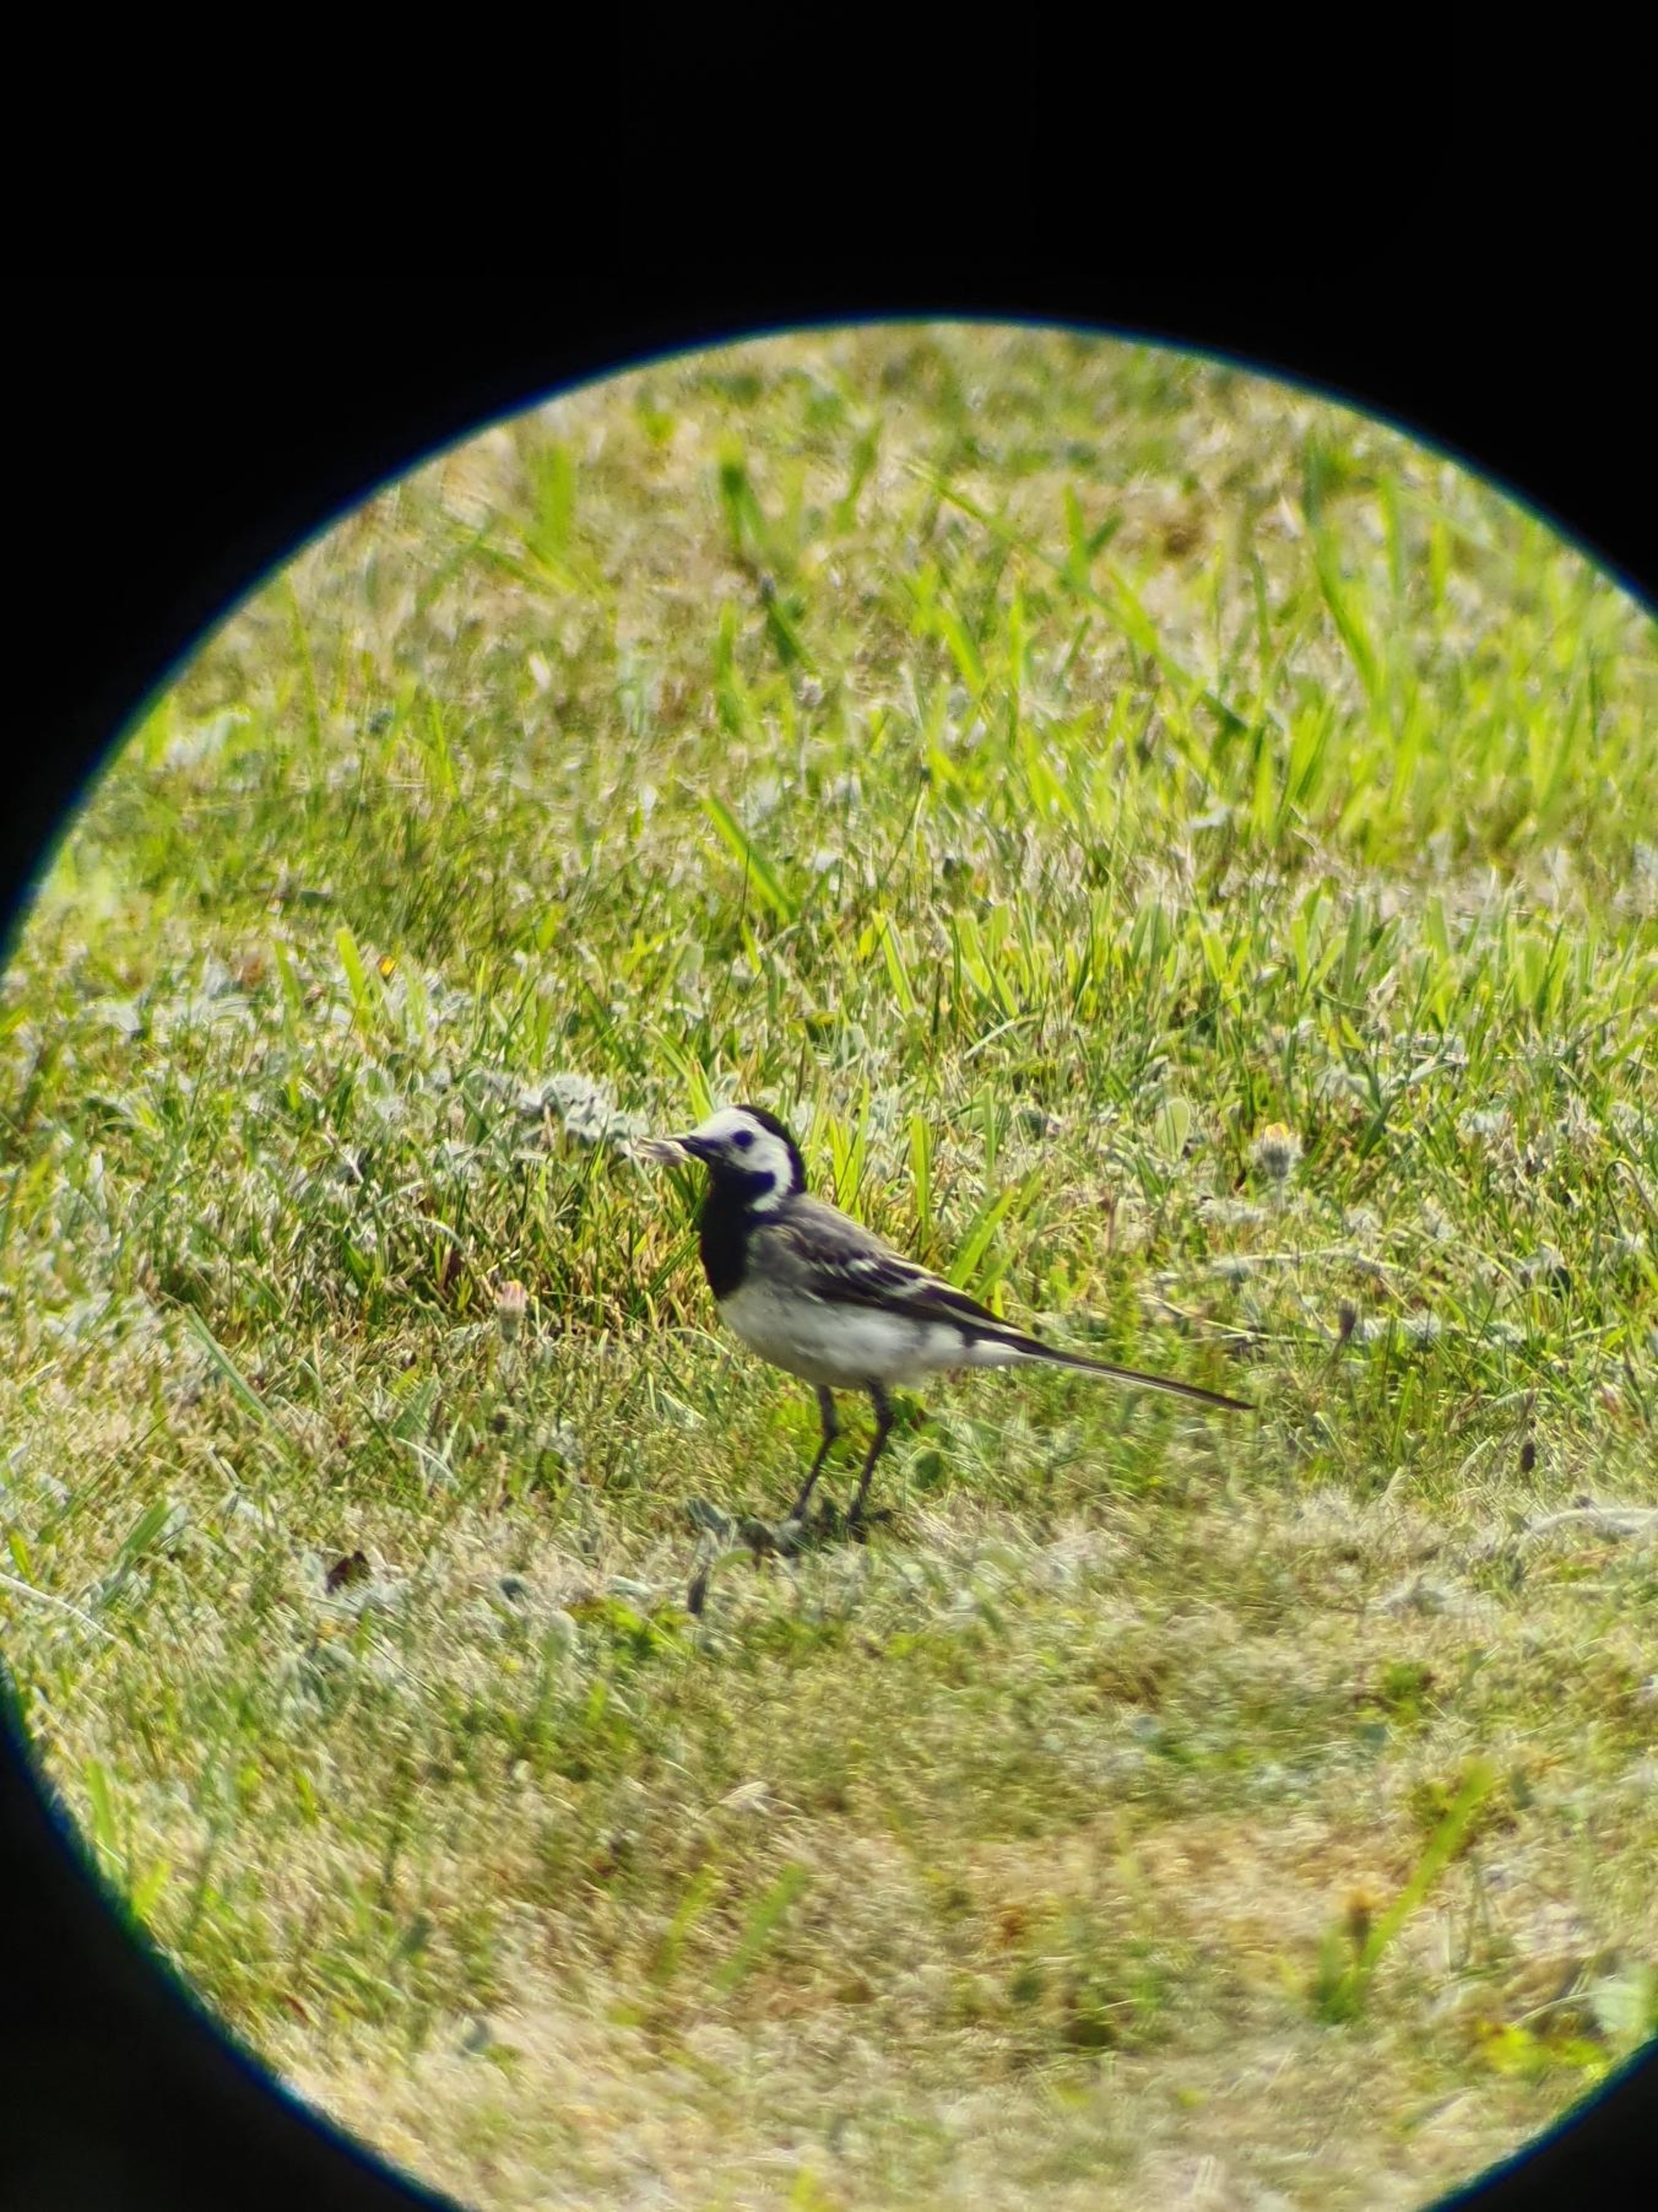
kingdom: Animalia
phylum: Chordata
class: Aves
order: Passeriformes
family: Motacillidae
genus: Motacilla
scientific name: Motacilla alba
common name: Hvid vipstjert
